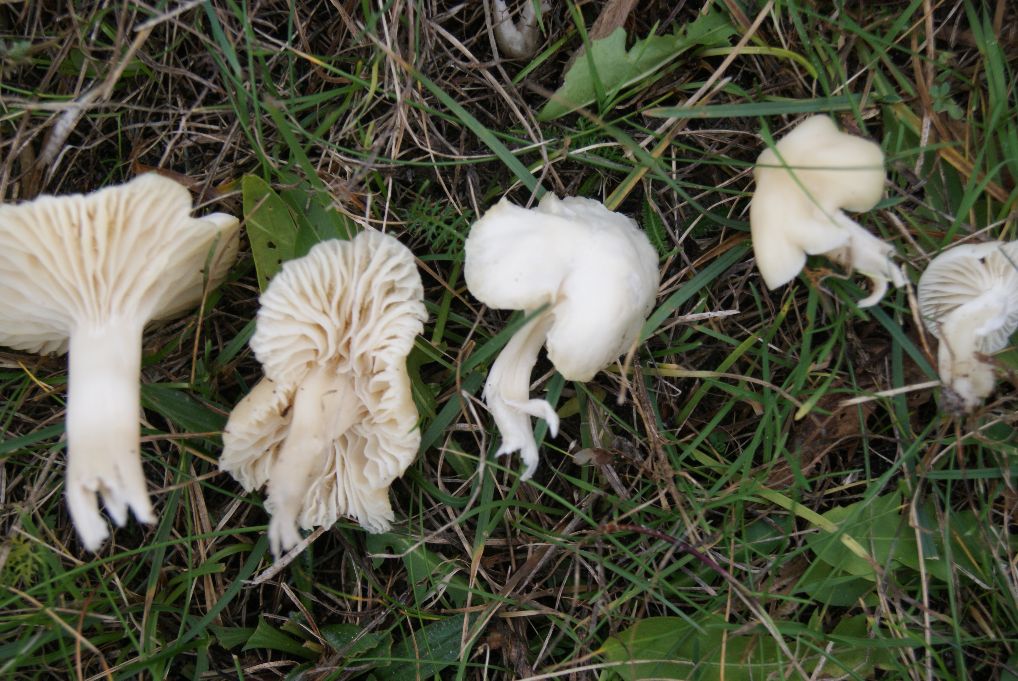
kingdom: Fungi
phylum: Basidiomycota
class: Agaricomycetes
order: Agaricales
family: Hygrophoraceae
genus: Cuphophyllus
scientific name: Cuphophyllus virgineus
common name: snehvid vokshat
